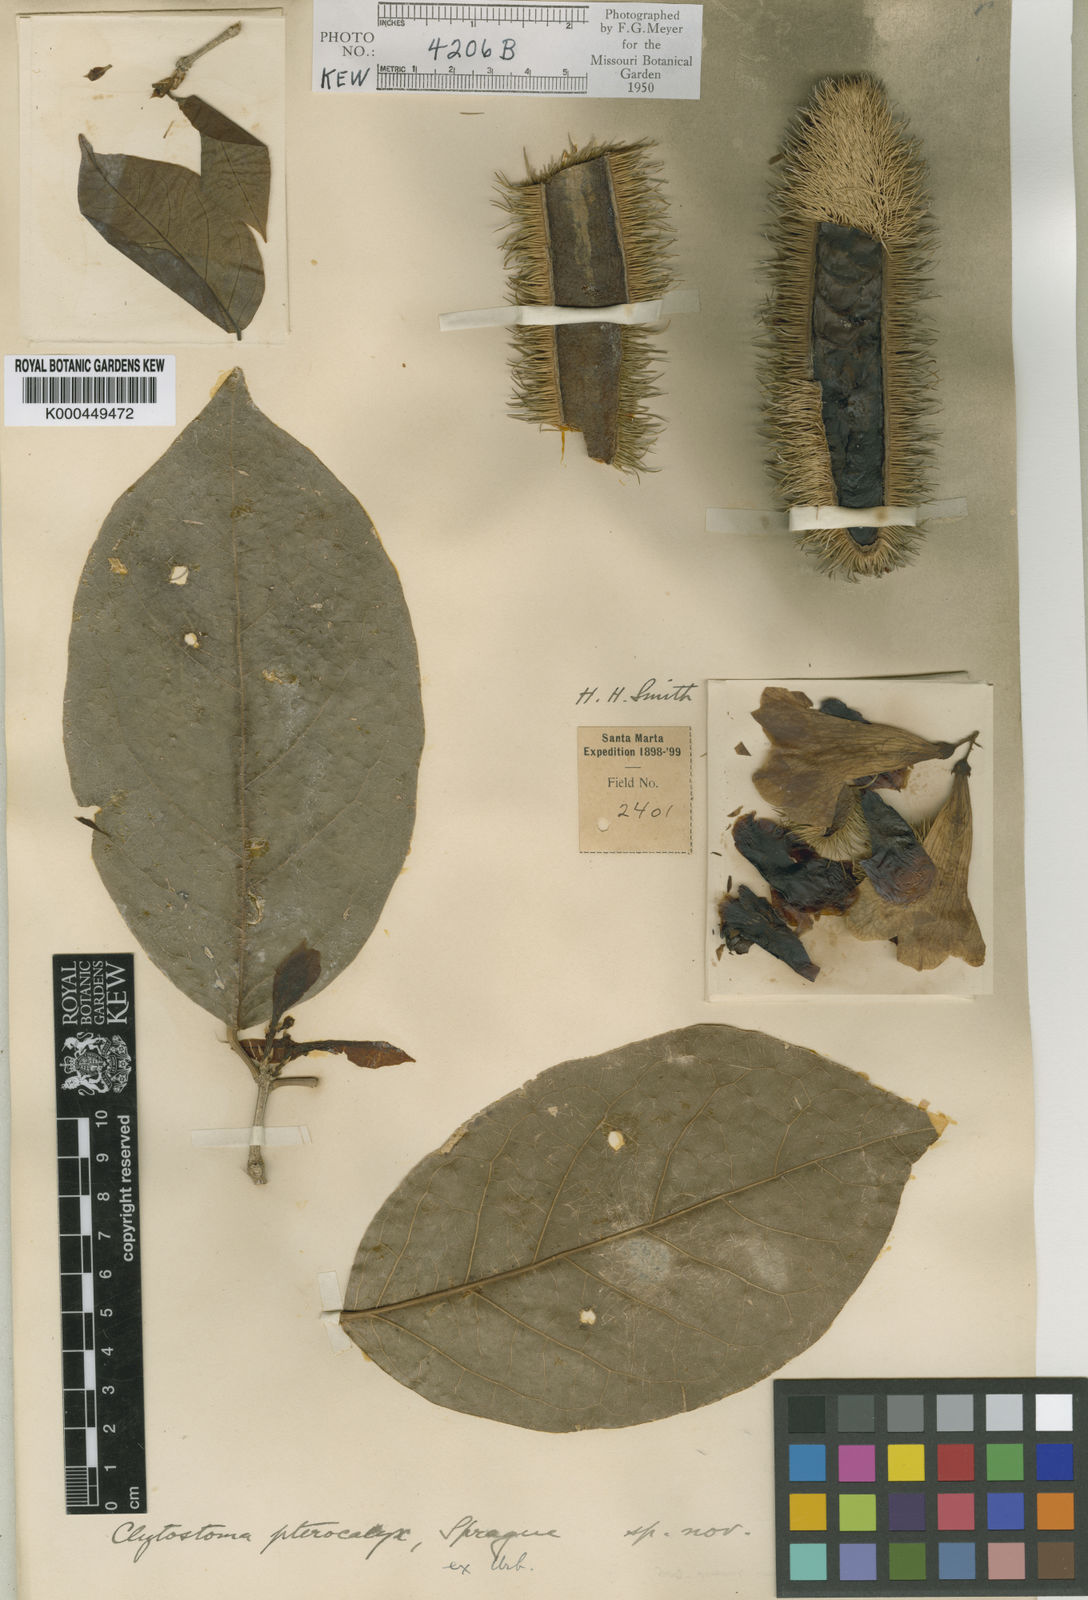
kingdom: Plantae
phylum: Tracheophyta
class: Magnoliopsida
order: Lamiales
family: Bignoniaceae
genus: Bignonia
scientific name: Bignonia pterocalyx
